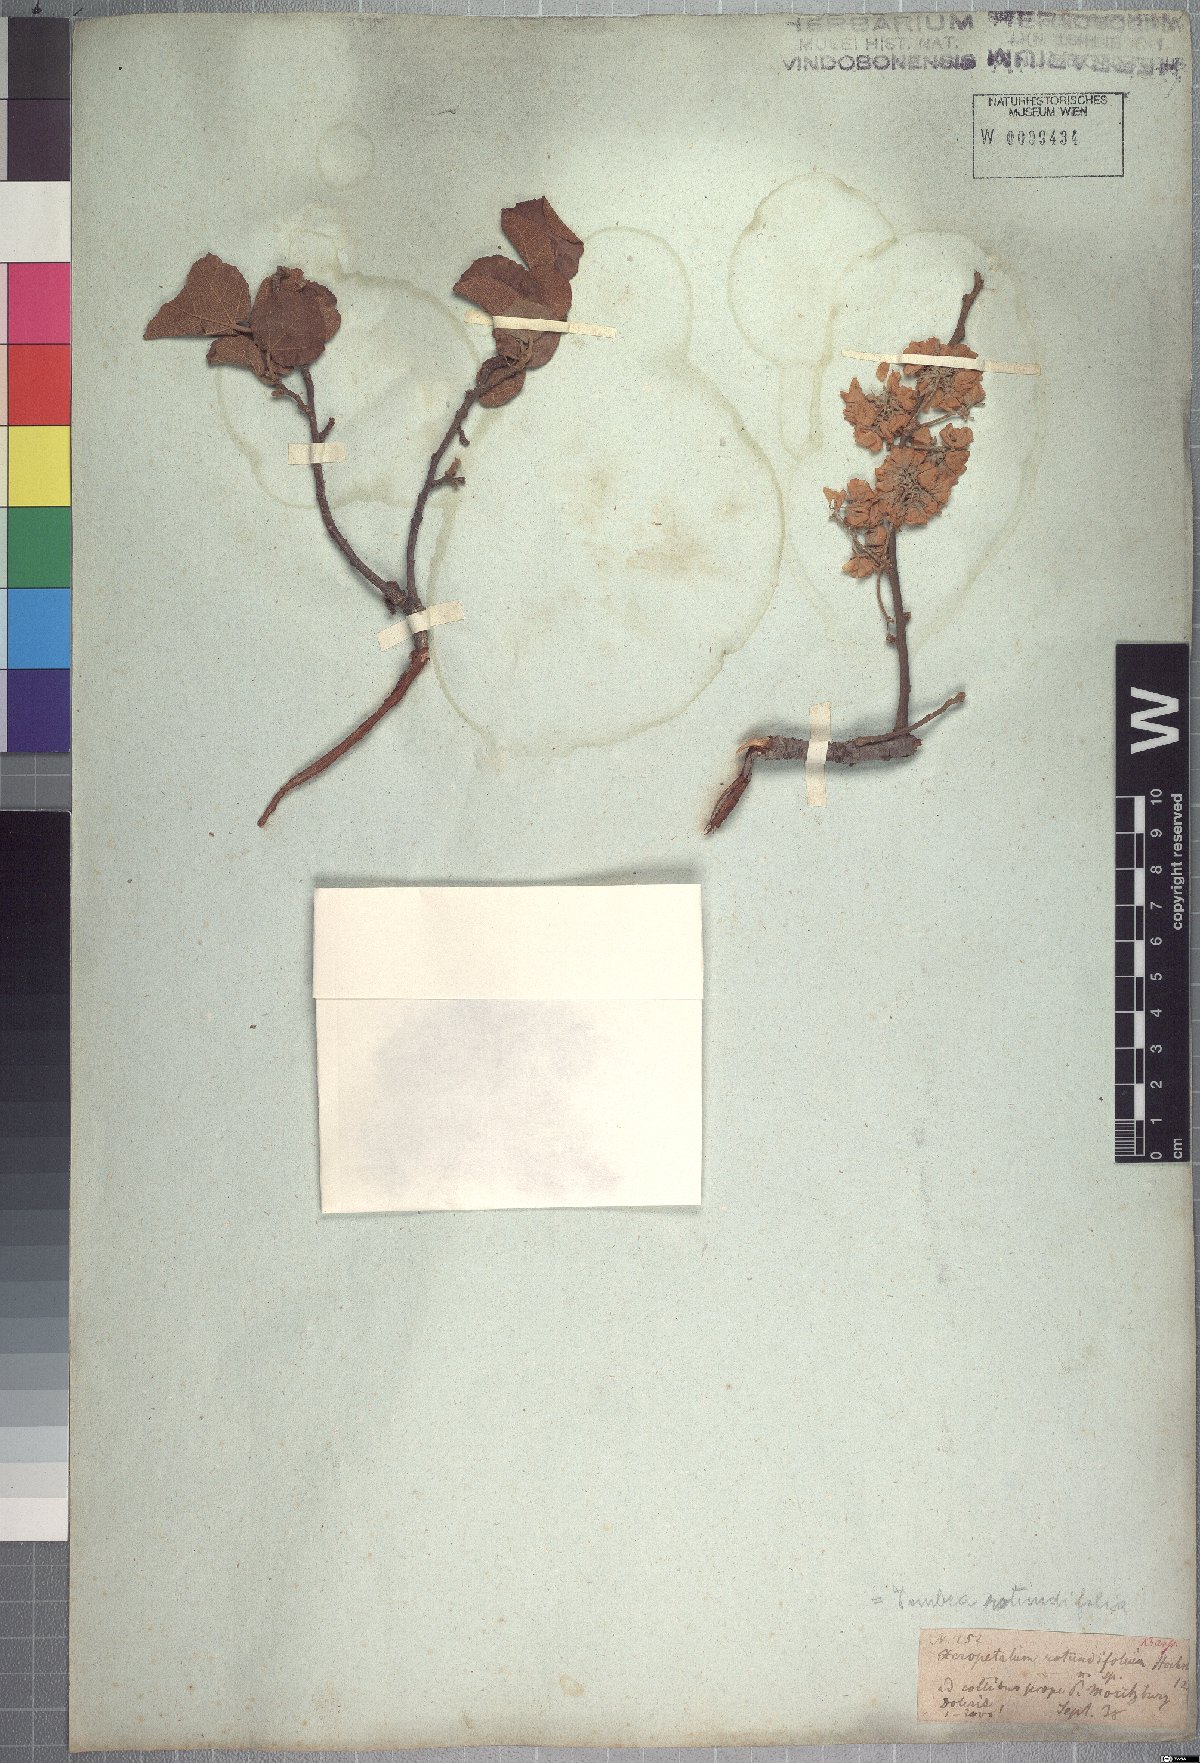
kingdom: Plantae
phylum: Tracheophyta
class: Magnoliopsida
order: Malvales
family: Malvaceae
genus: Dombeya
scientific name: Dombeya rotundifolia
